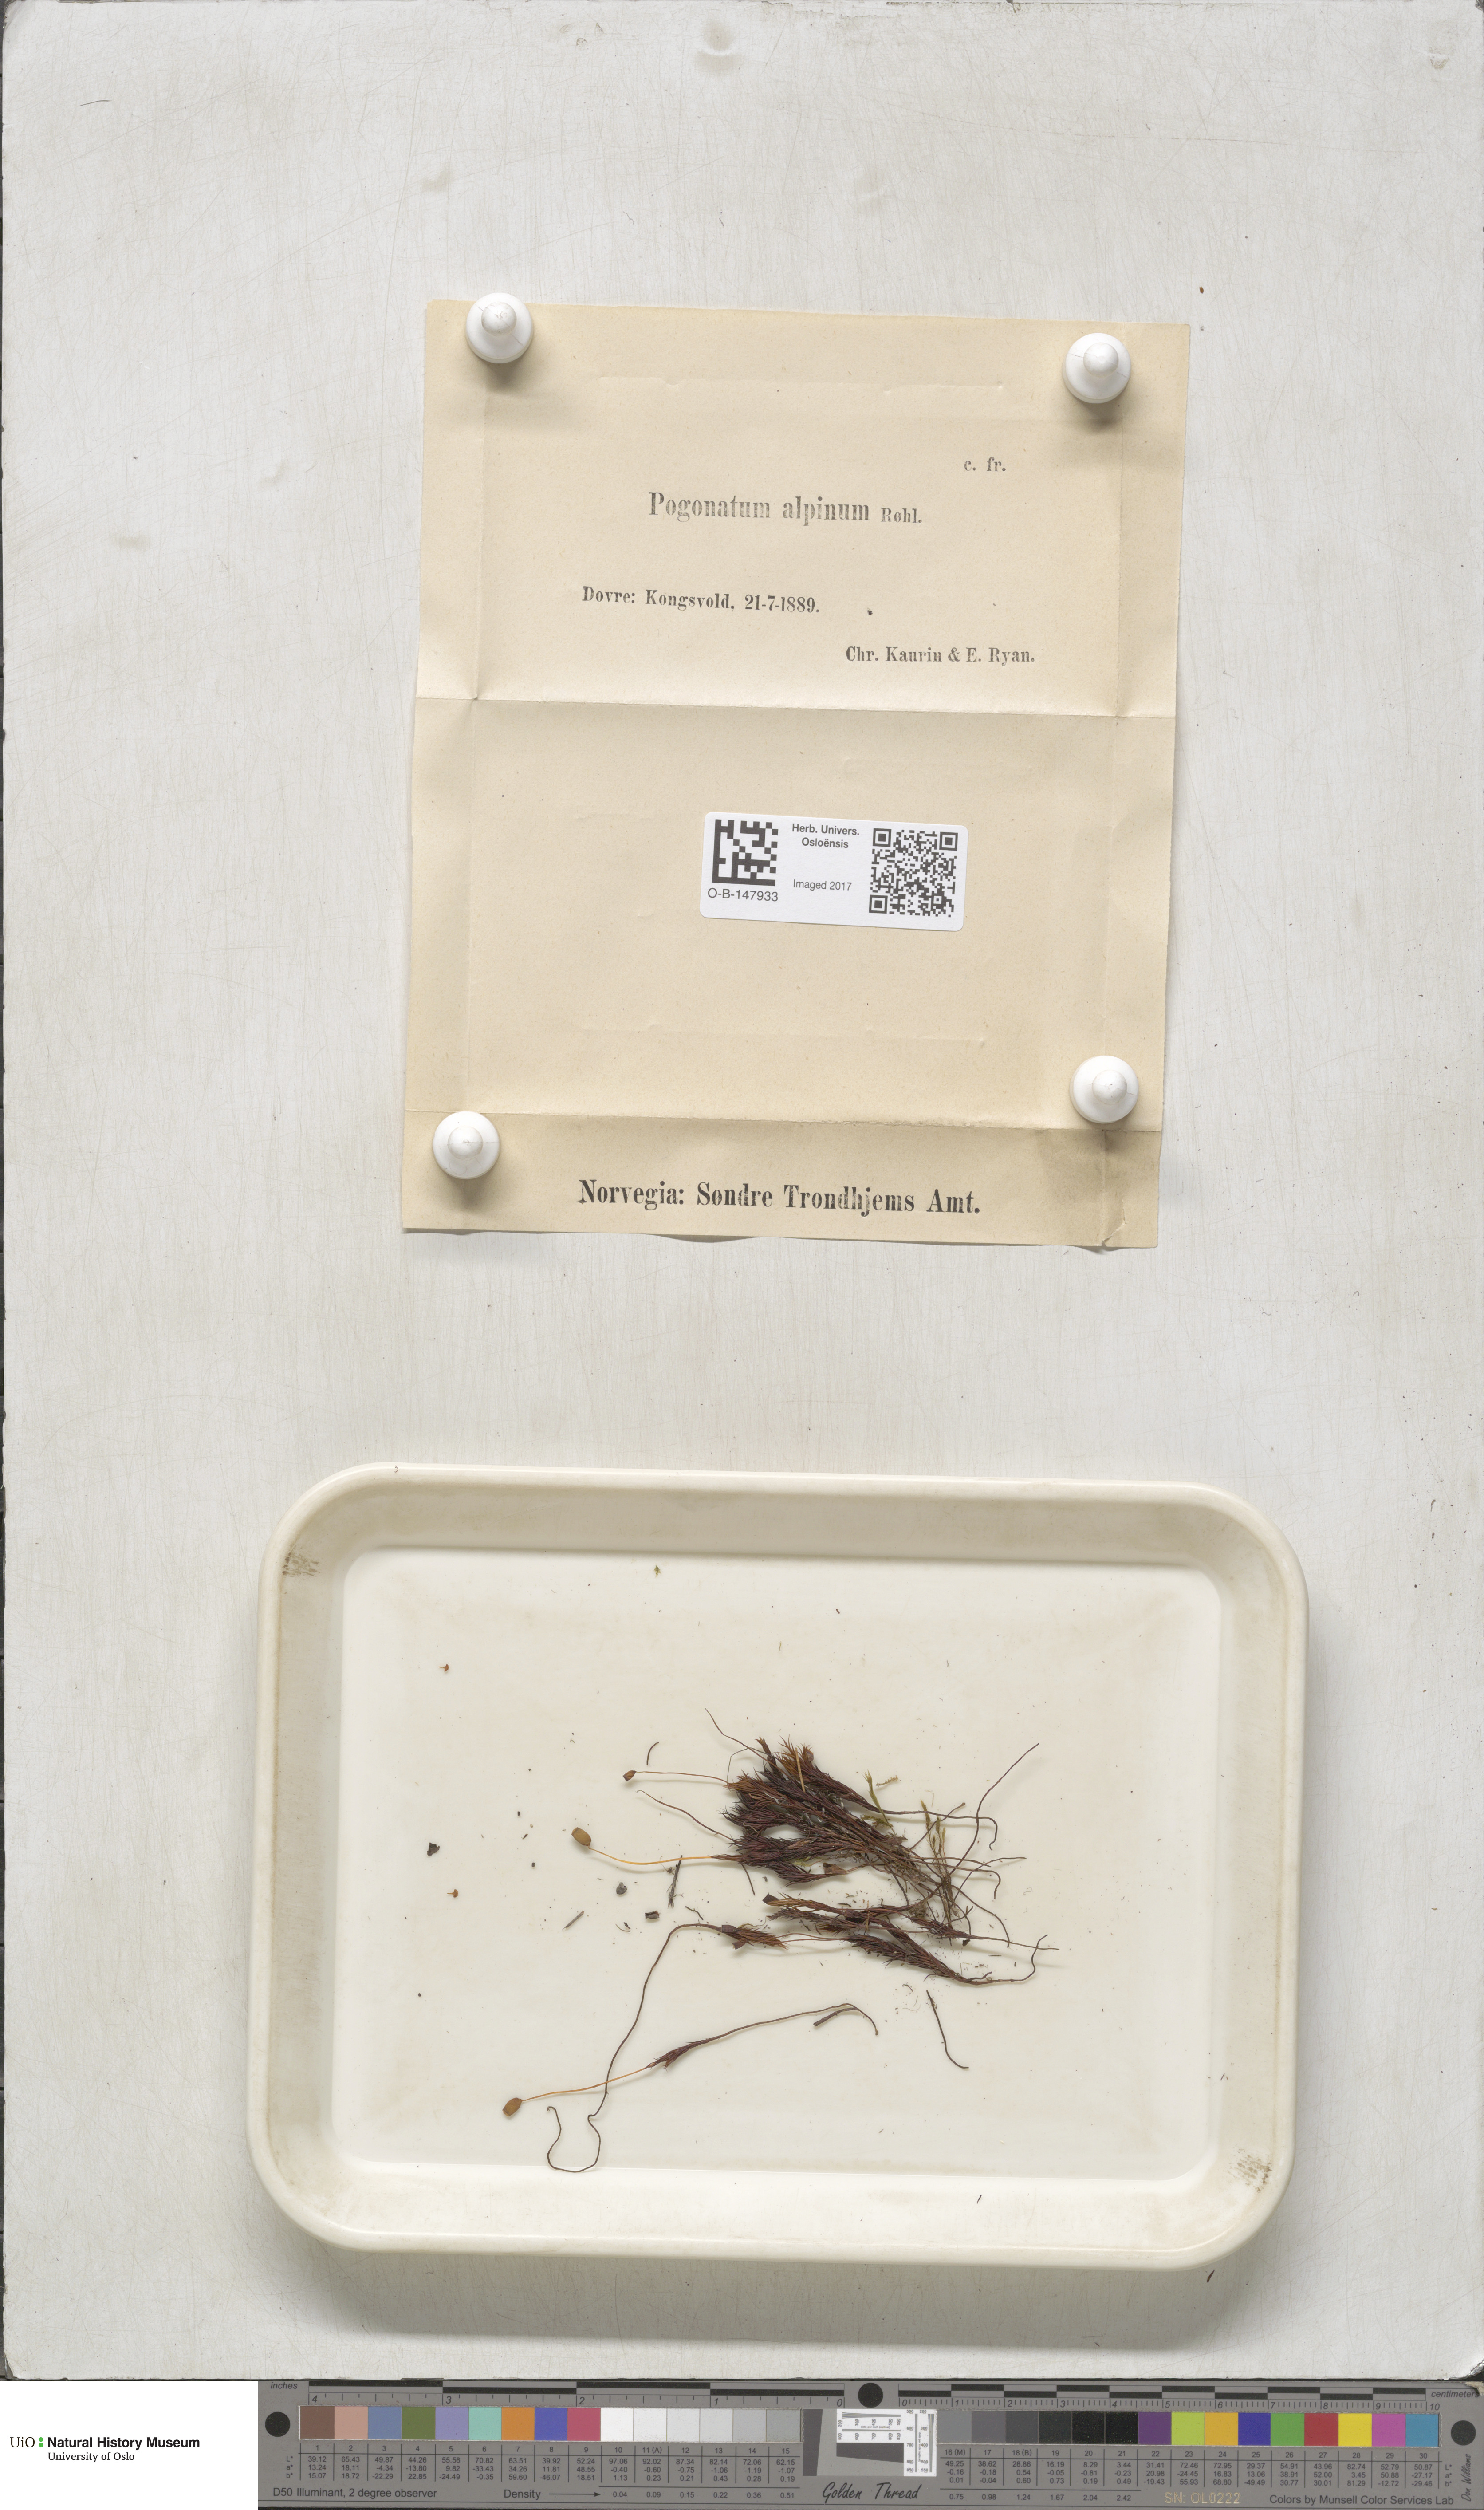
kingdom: Plantae
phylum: Bryophyta
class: Polytrichopsida
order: Polytrichales
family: Polytrichaceae
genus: Polytrichastrum
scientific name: Polytrichastrum alpinum
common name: Alpine haircap
